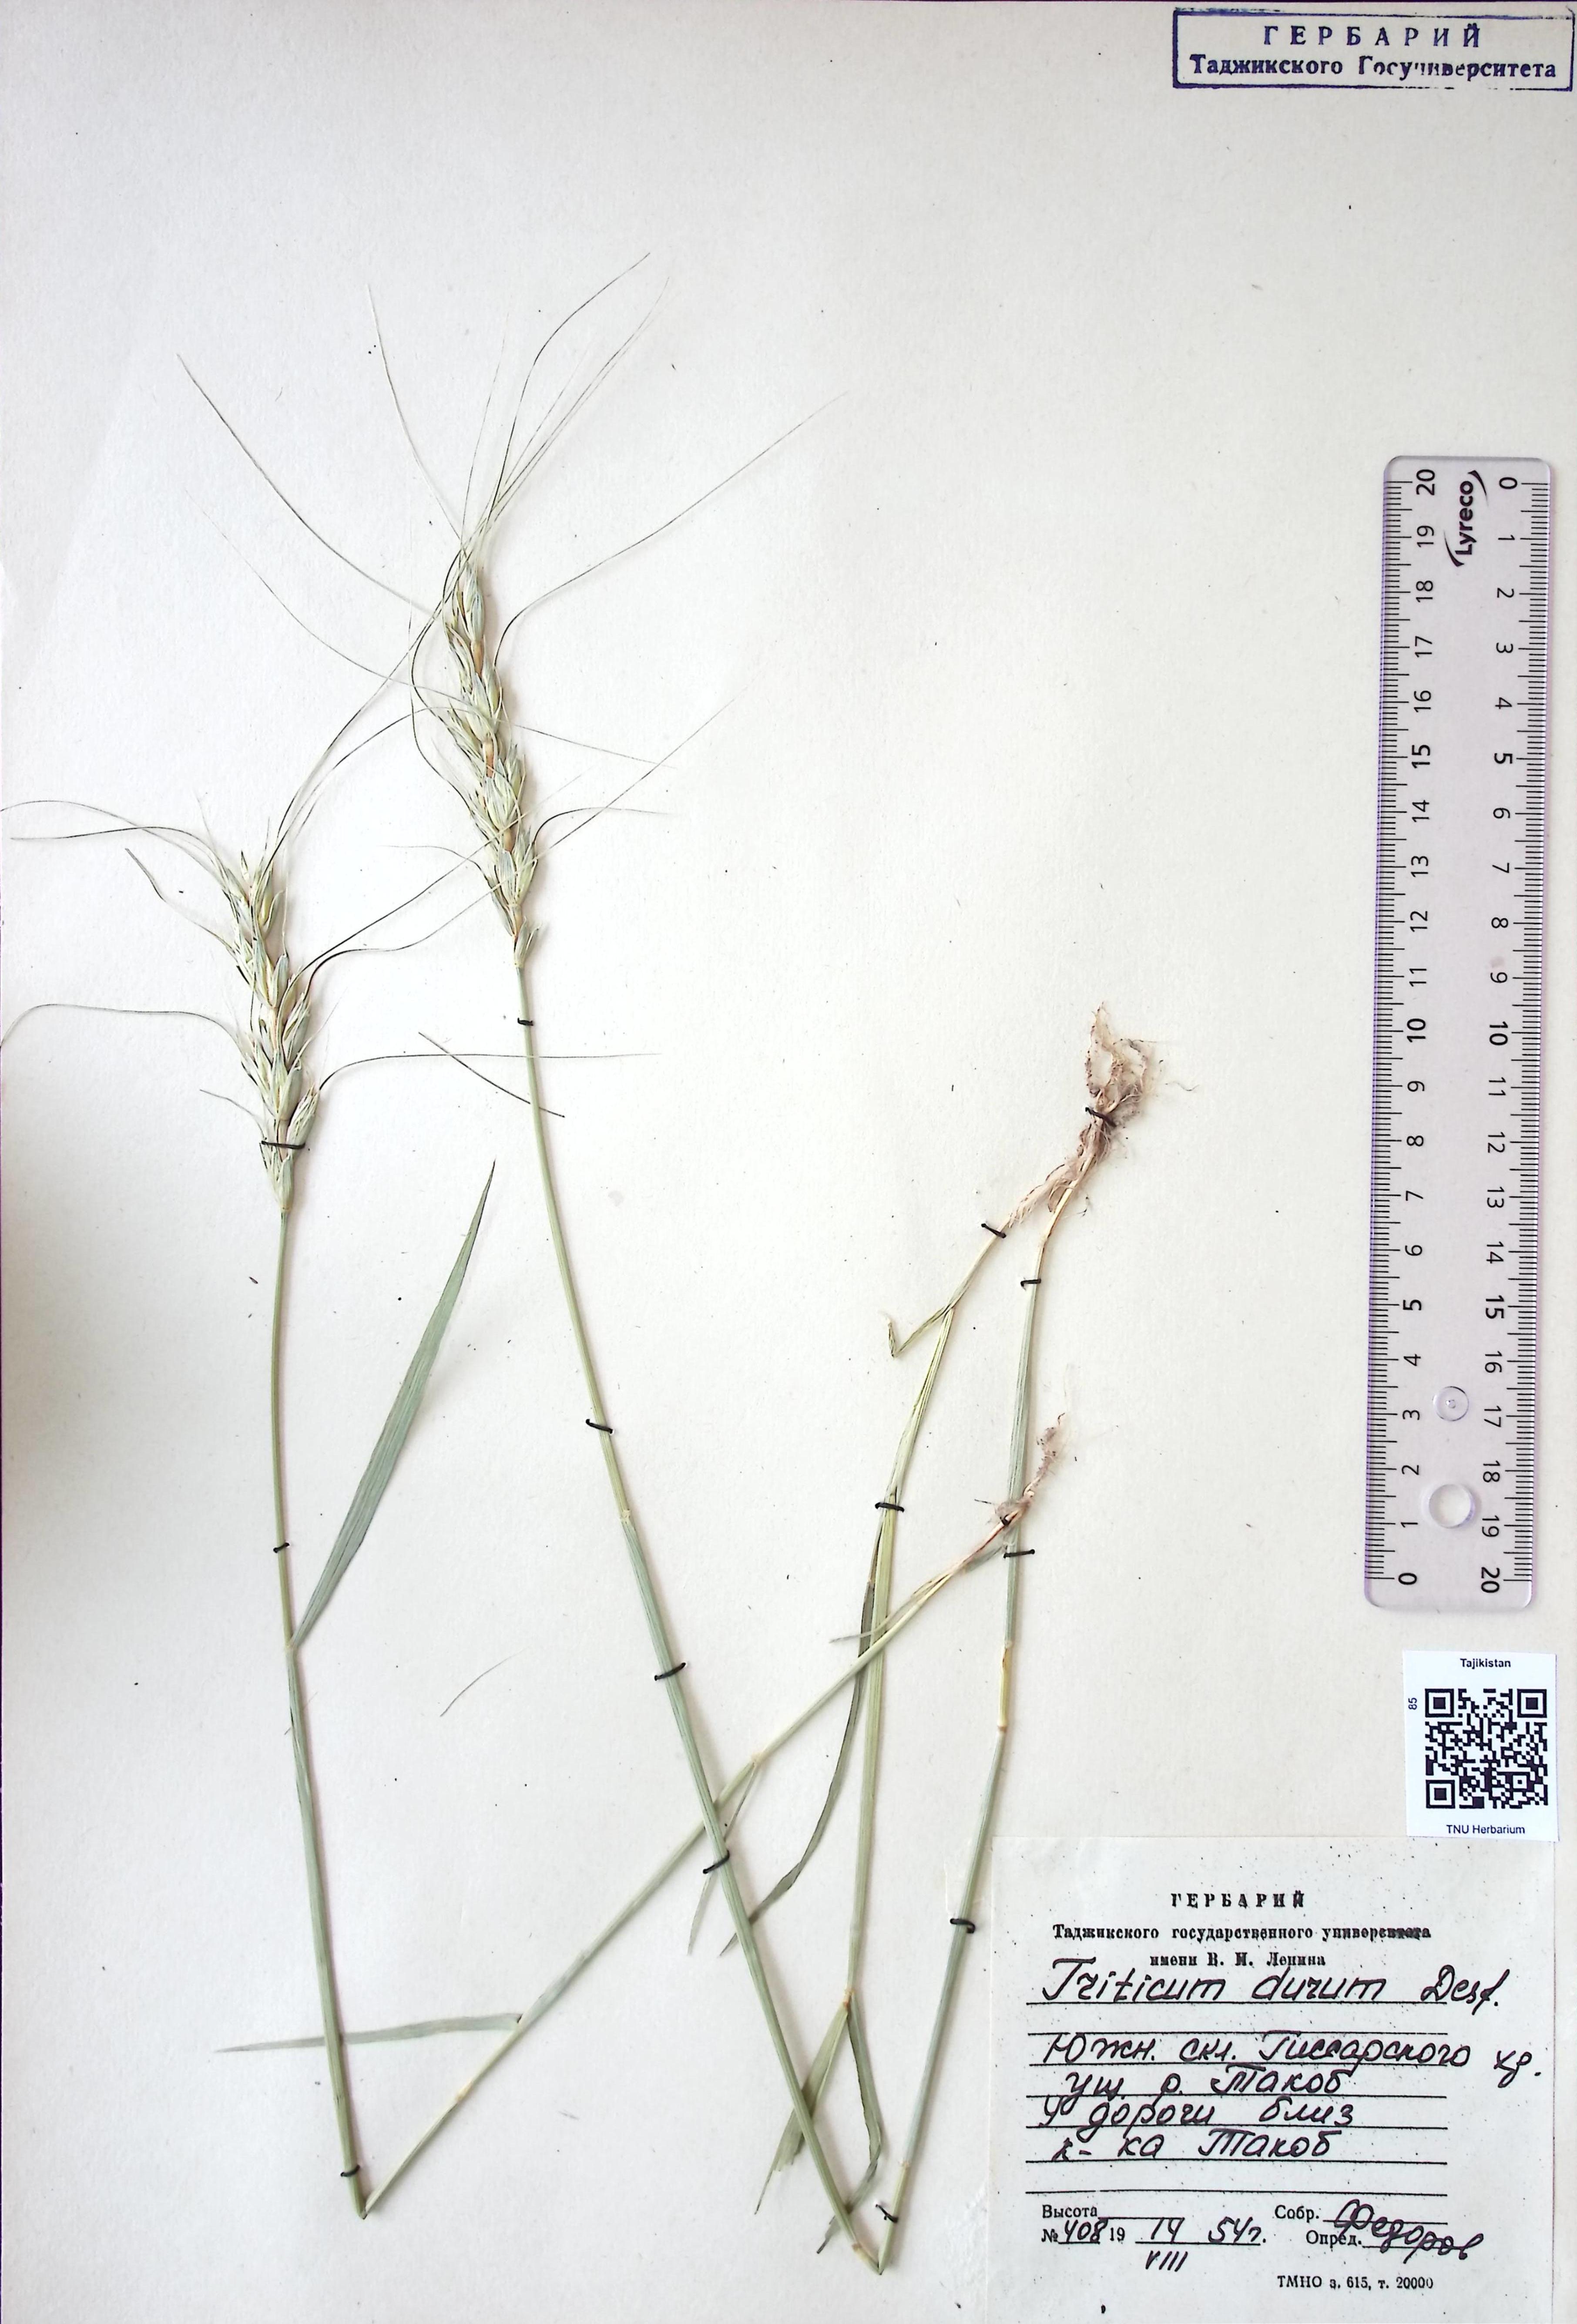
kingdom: Plantae
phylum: Tracheophyta
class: Liliopsida
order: Poales
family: Poaceae
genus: Triticum
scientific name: Triticum durum
